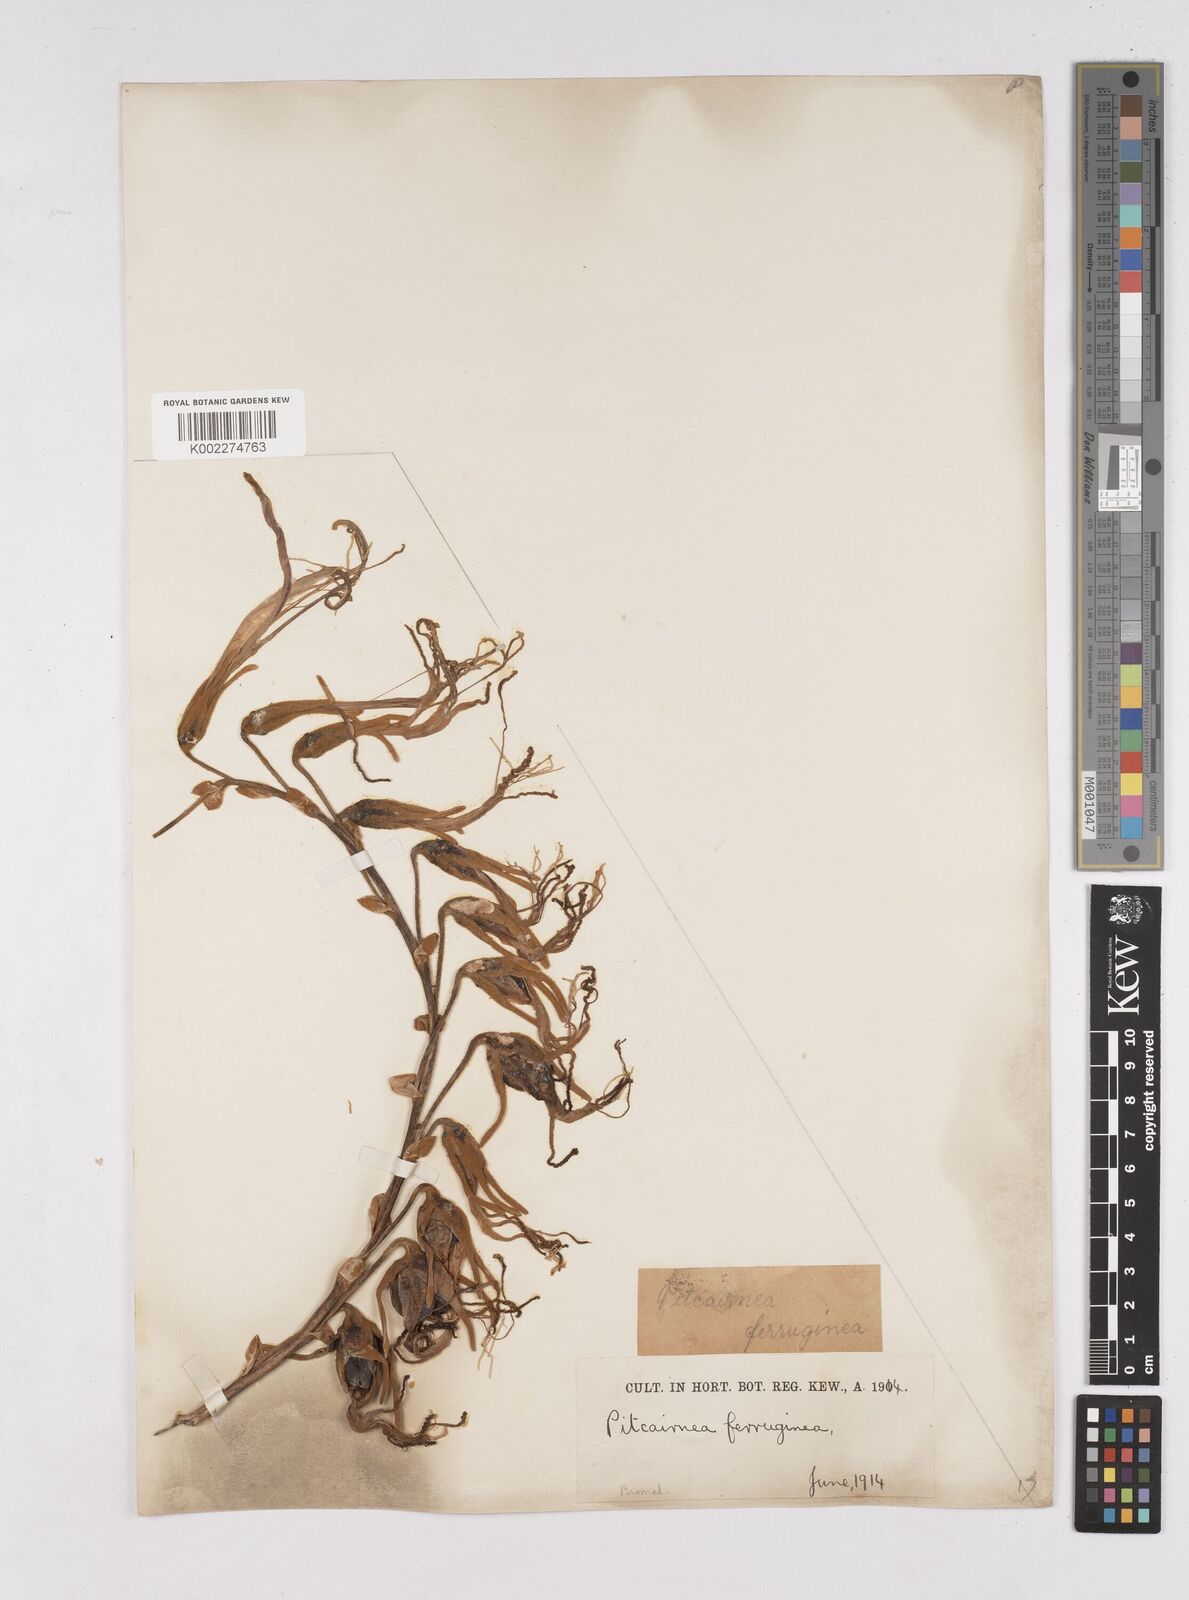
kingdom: Plantae
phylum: Tracheophyta
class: Liliopsida
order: Poales
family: Bromeliaceae
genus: Puya
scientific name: Puya
